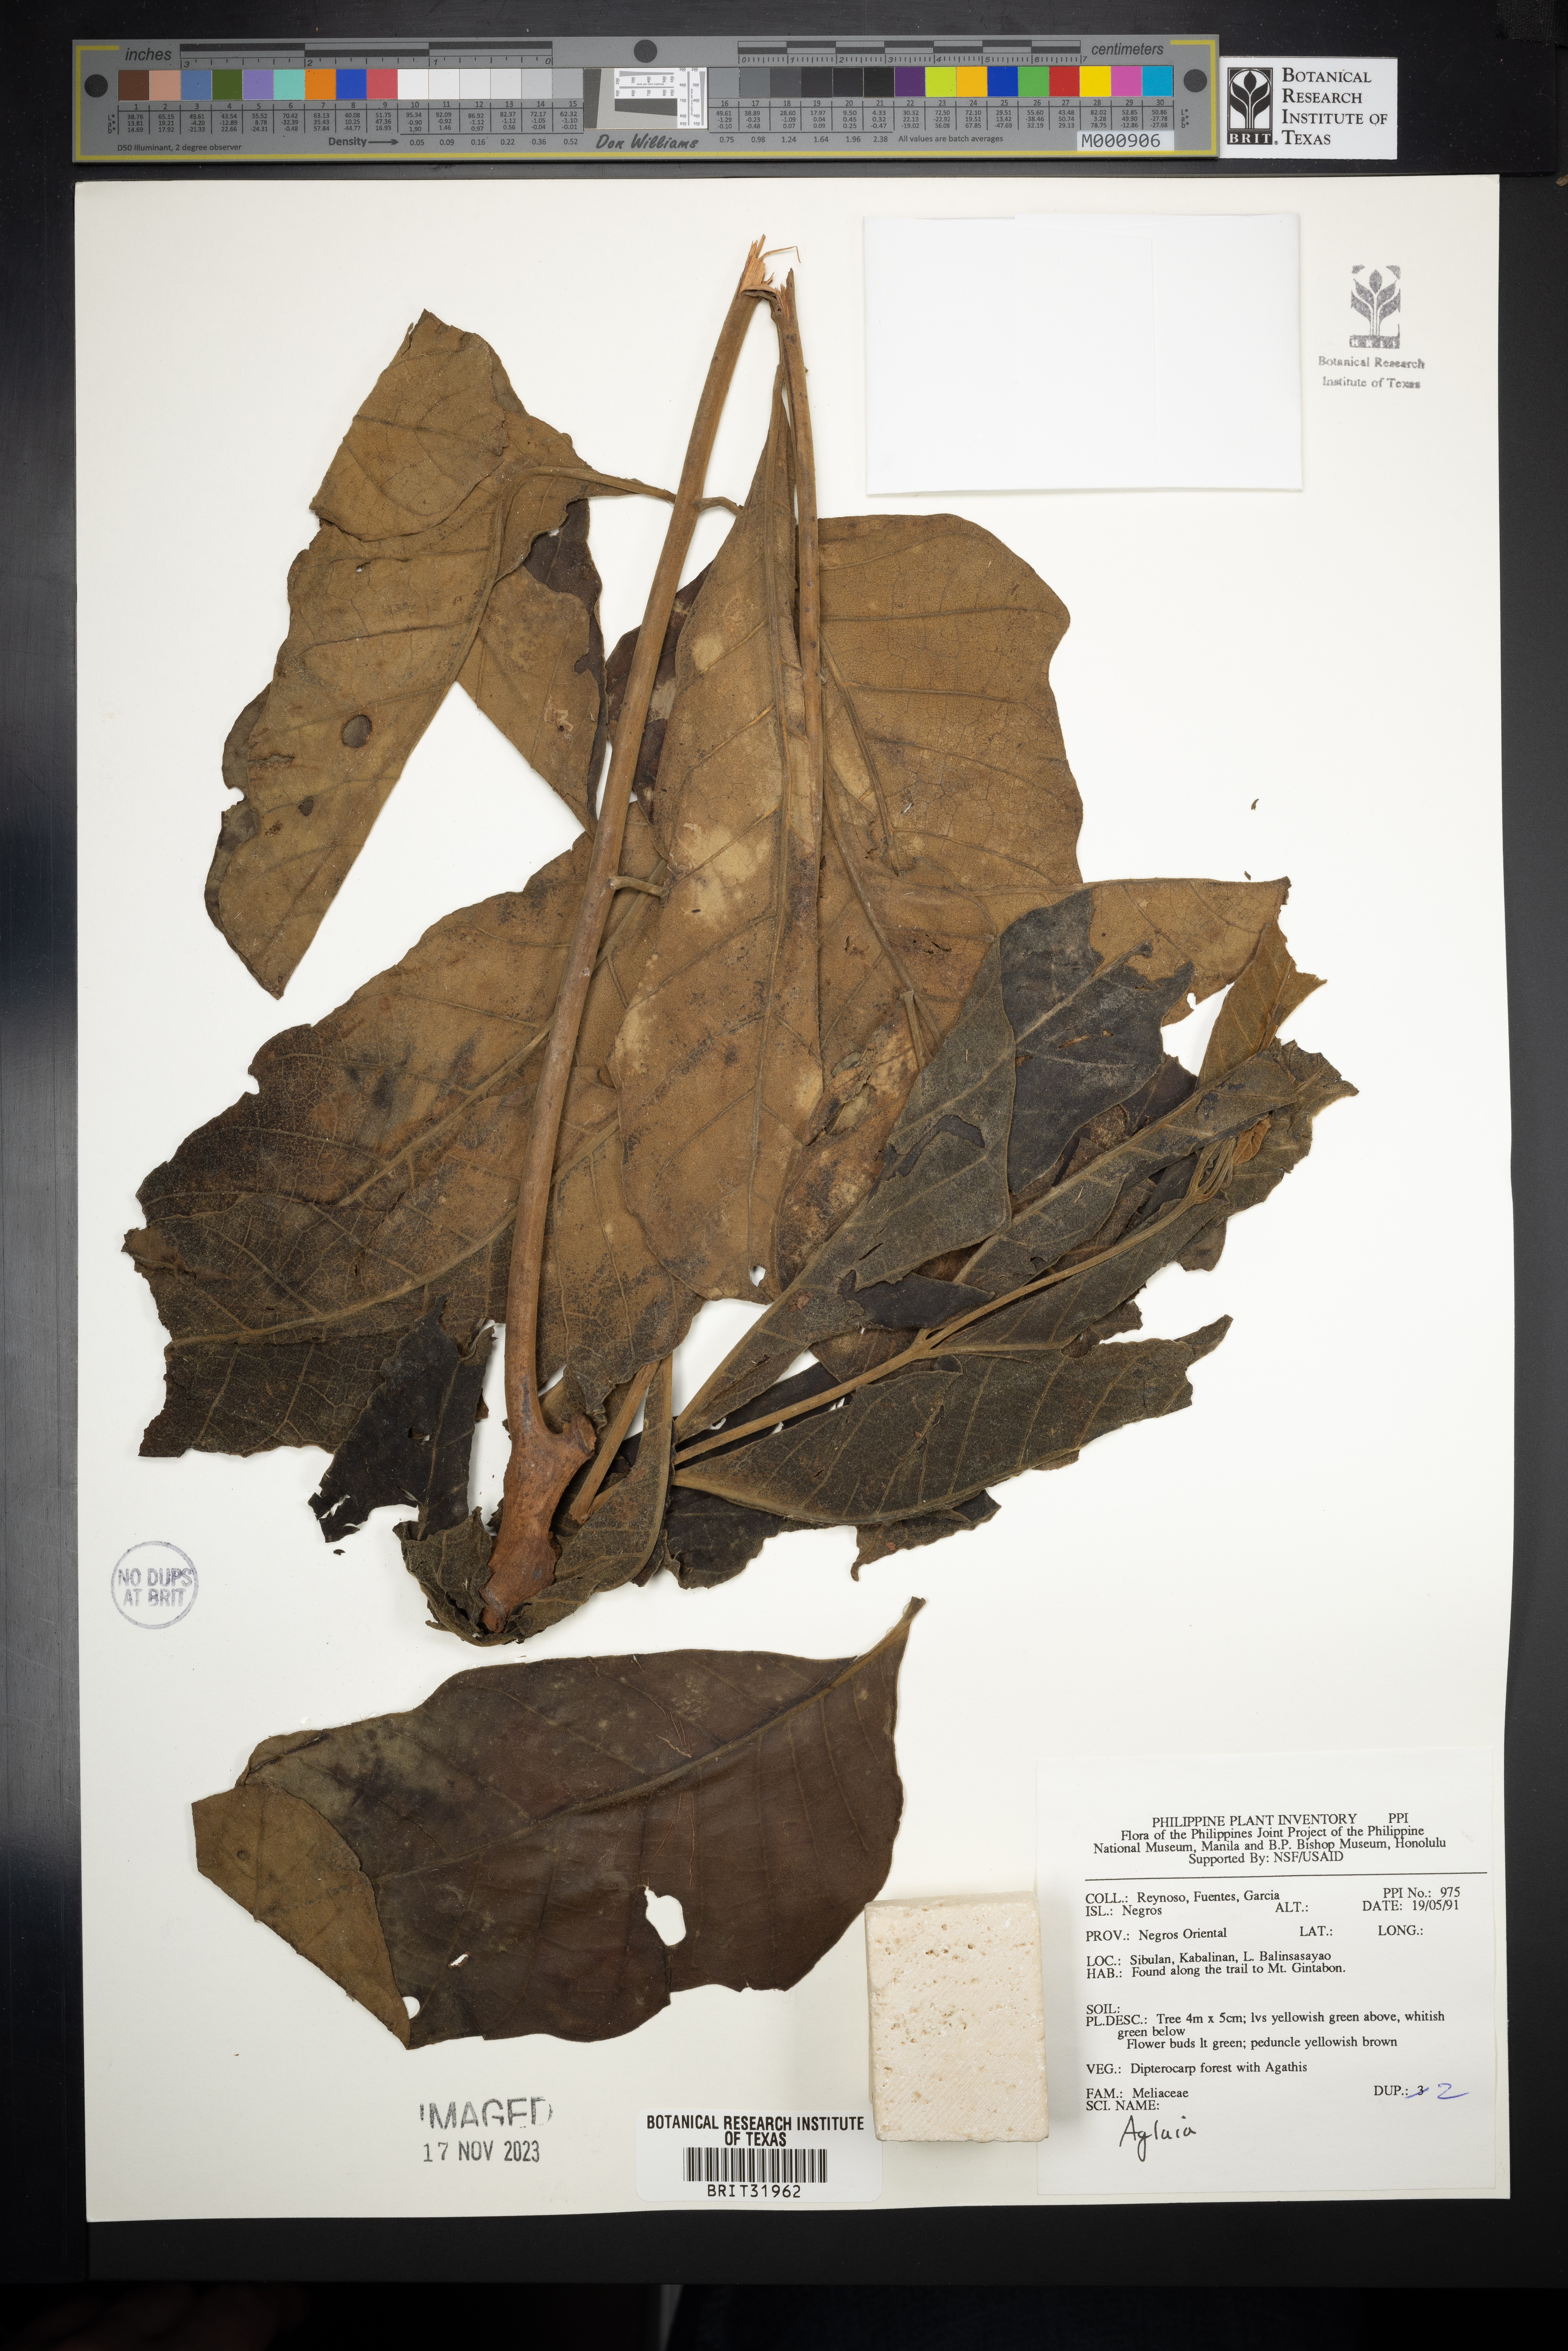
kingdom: Plantae
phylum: Tracheophyta
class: Magnoliopsida
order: Sapindales
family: Meliaceae
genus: Aglaia
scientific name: Aglaia
